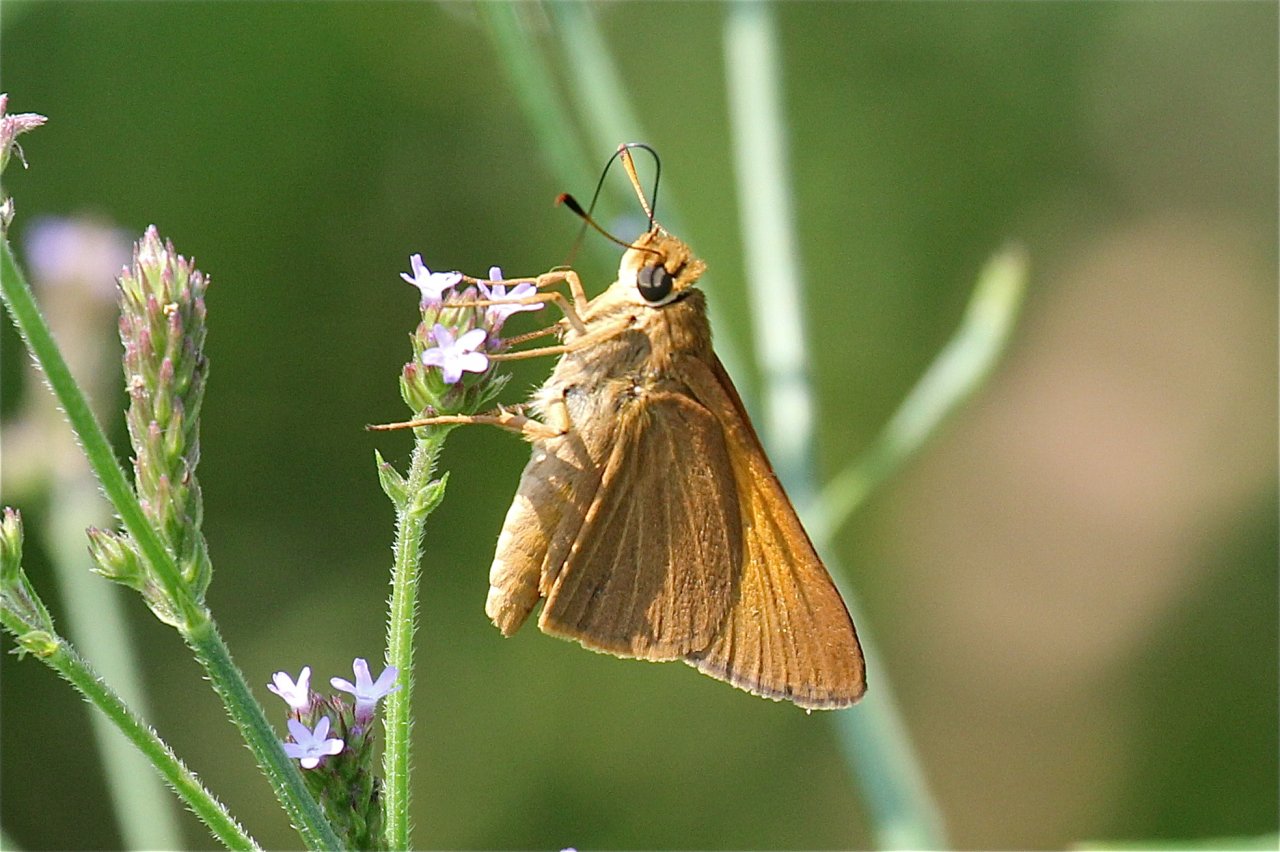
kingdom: Animalia
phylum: Arthropoda
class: Insecta
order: Lepidoptera
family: Hesperiidae
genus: Euphyes
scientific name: Euphyes pilatka
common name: Palatka Skipper
